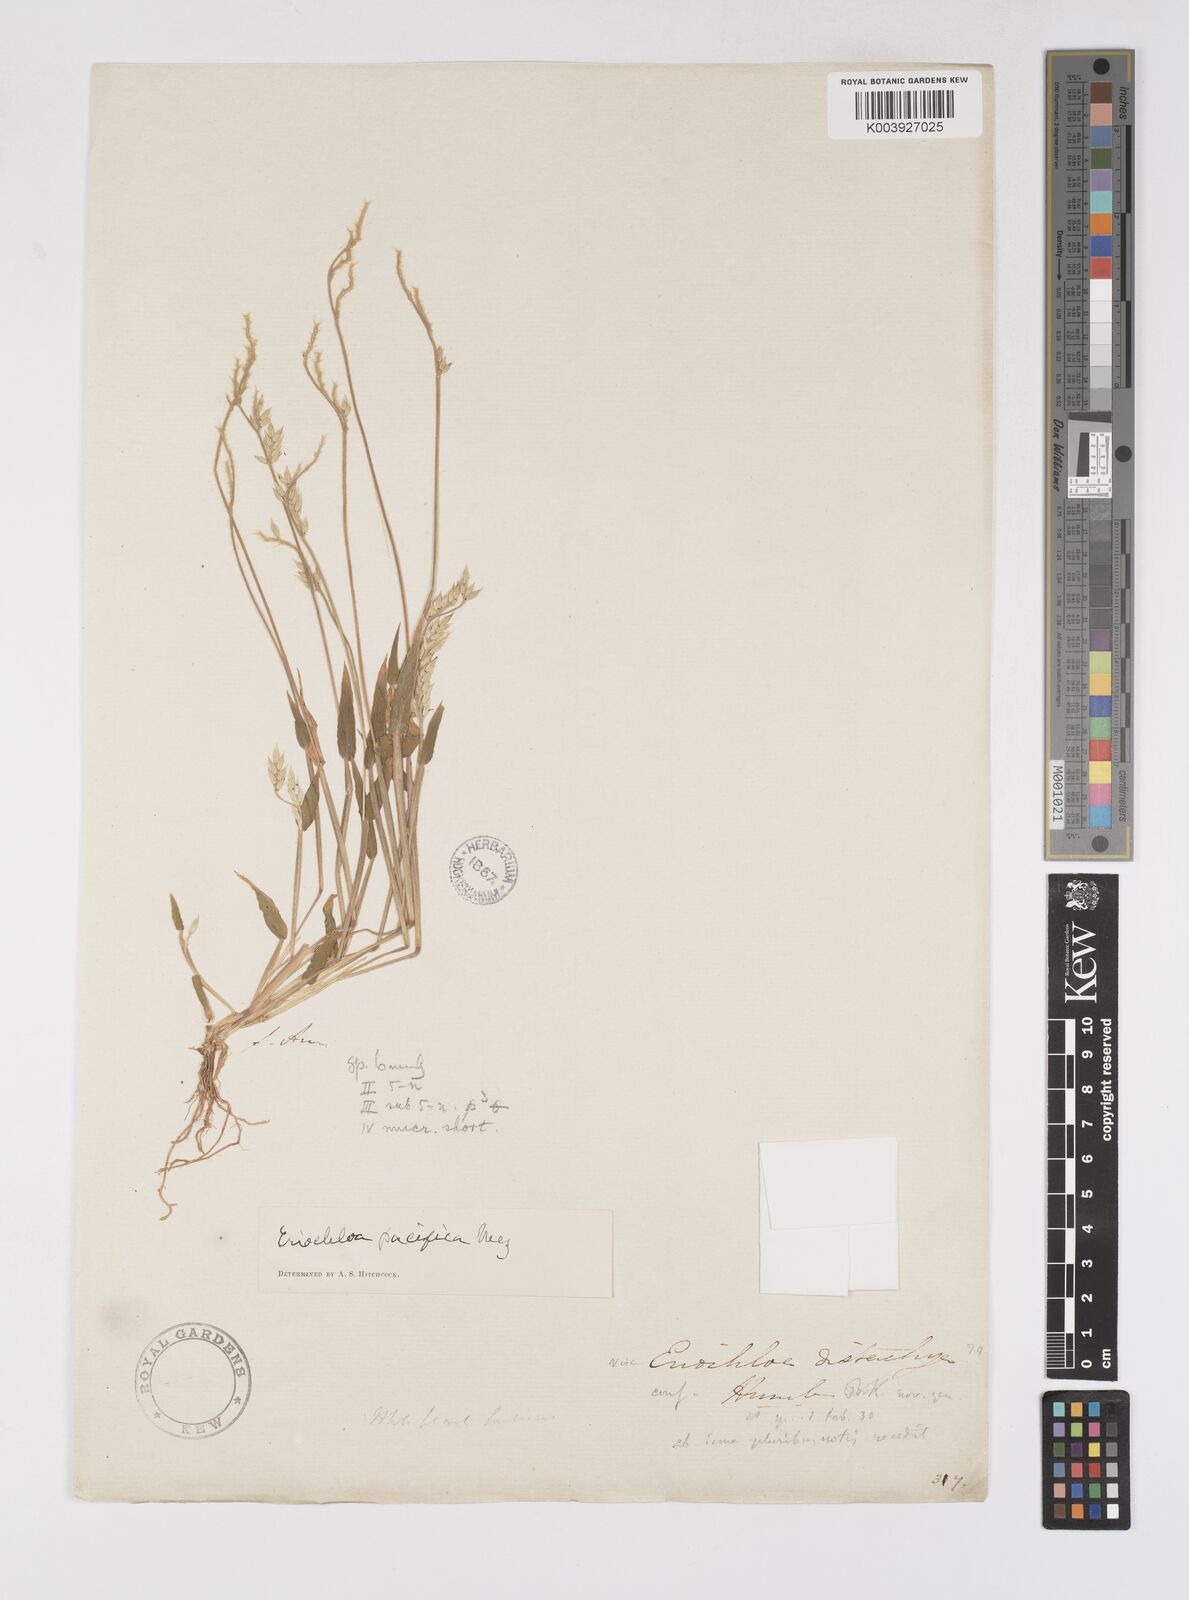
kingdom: Plantae
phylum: Tracheophyta
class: Liliopsida
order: Poales
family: Poaceae
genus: Eriochloa
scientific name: Eriochloa pacifica
